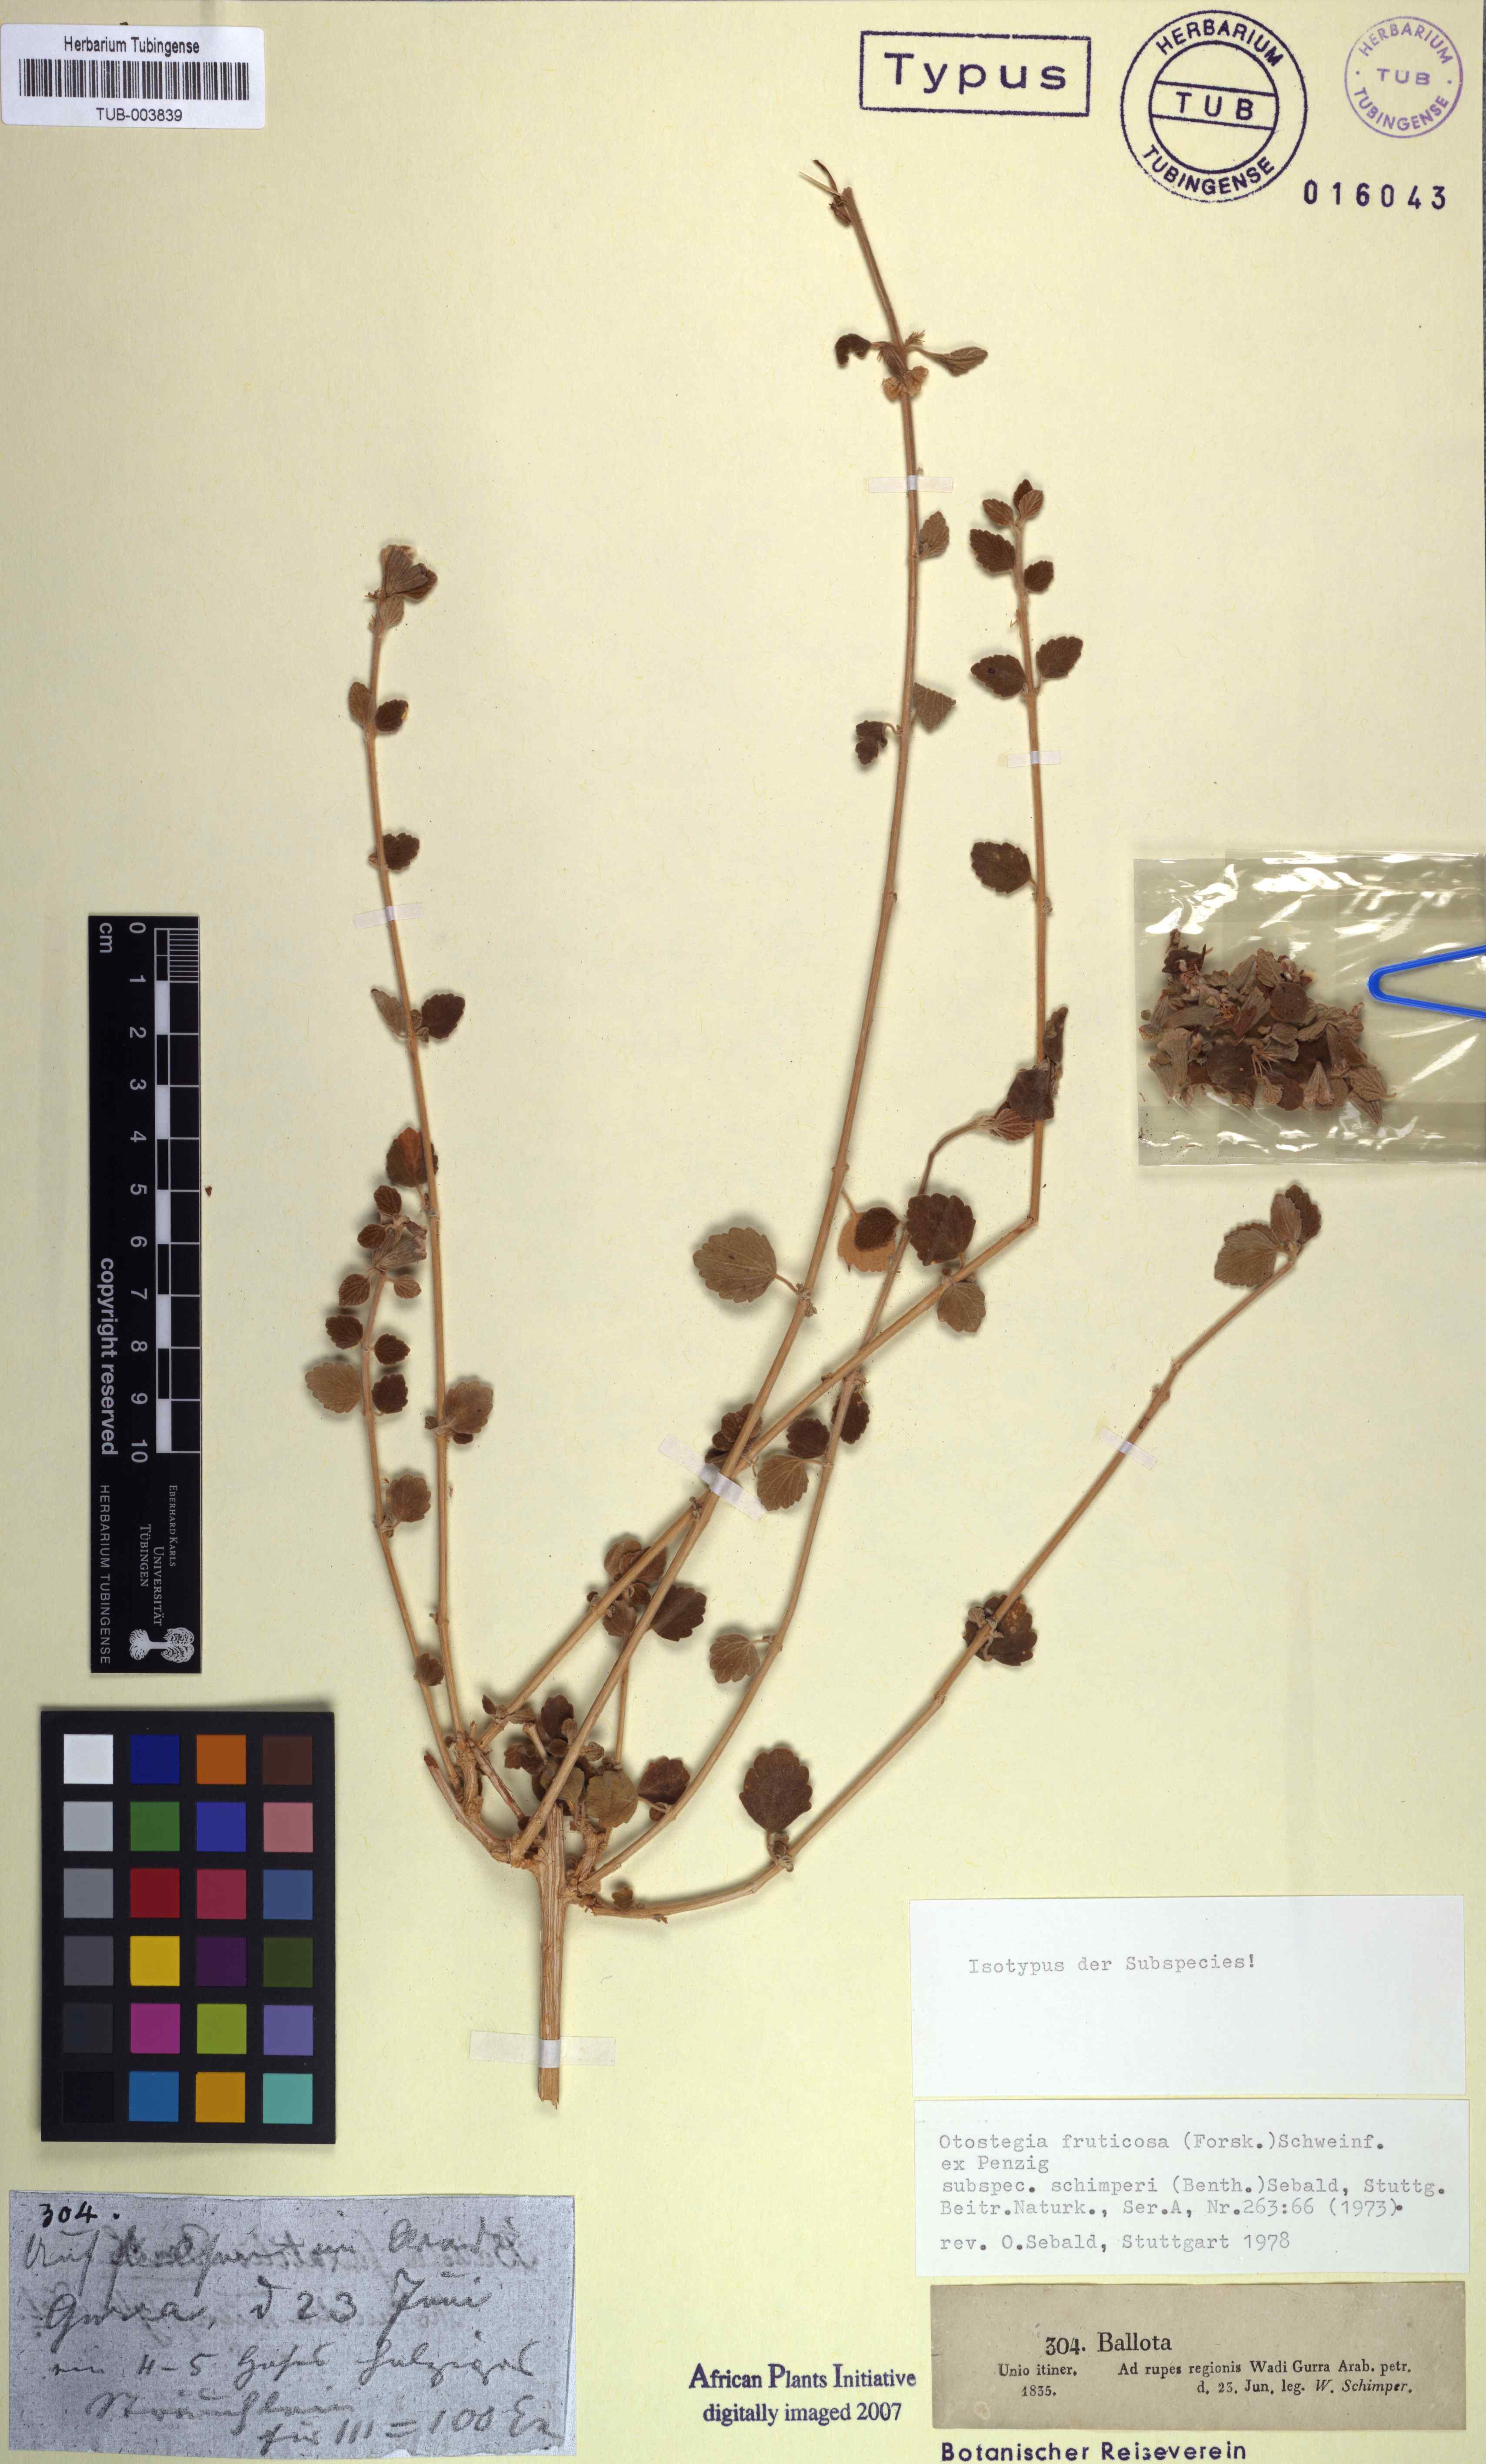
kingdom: Plantae
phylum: Tracheophyta
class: Magnoliopsida
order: Lamiales
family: Lamiaceae
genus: Otostegia
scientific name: Otostegia fruticosa
